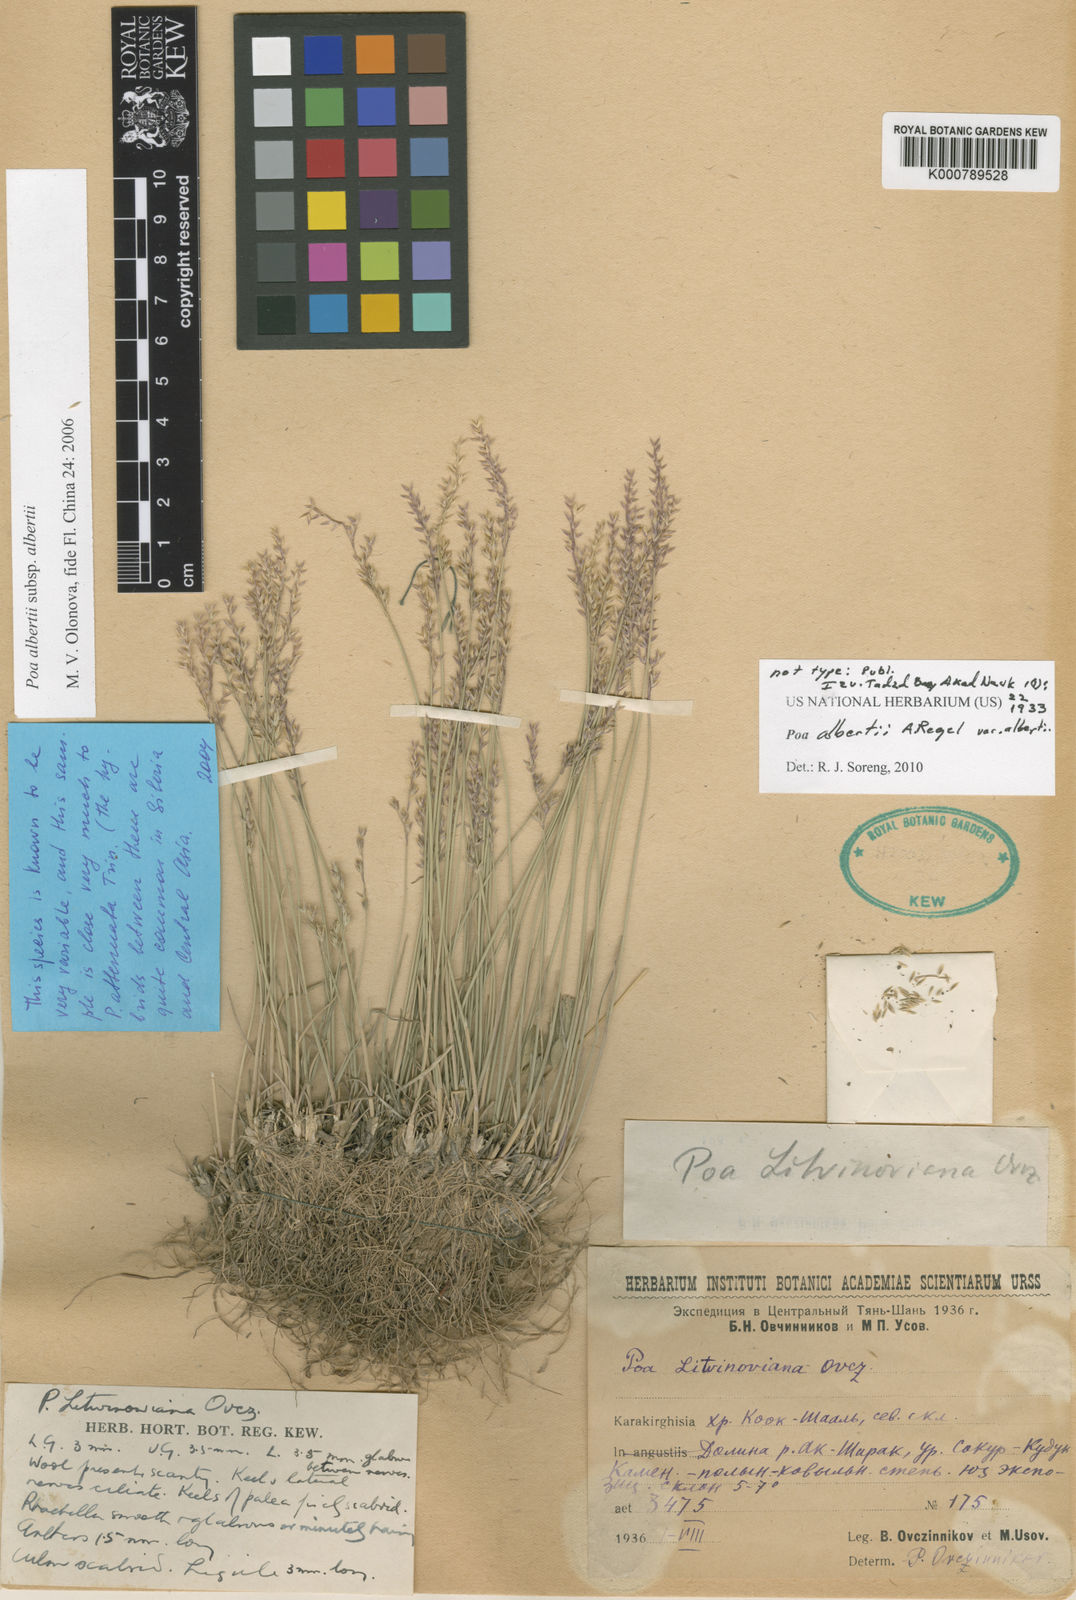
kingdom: Plantae
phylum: Tracheophyta
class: Liliopsida
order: Poales
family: Poaceae
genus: Poa
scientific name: Poa alberti
